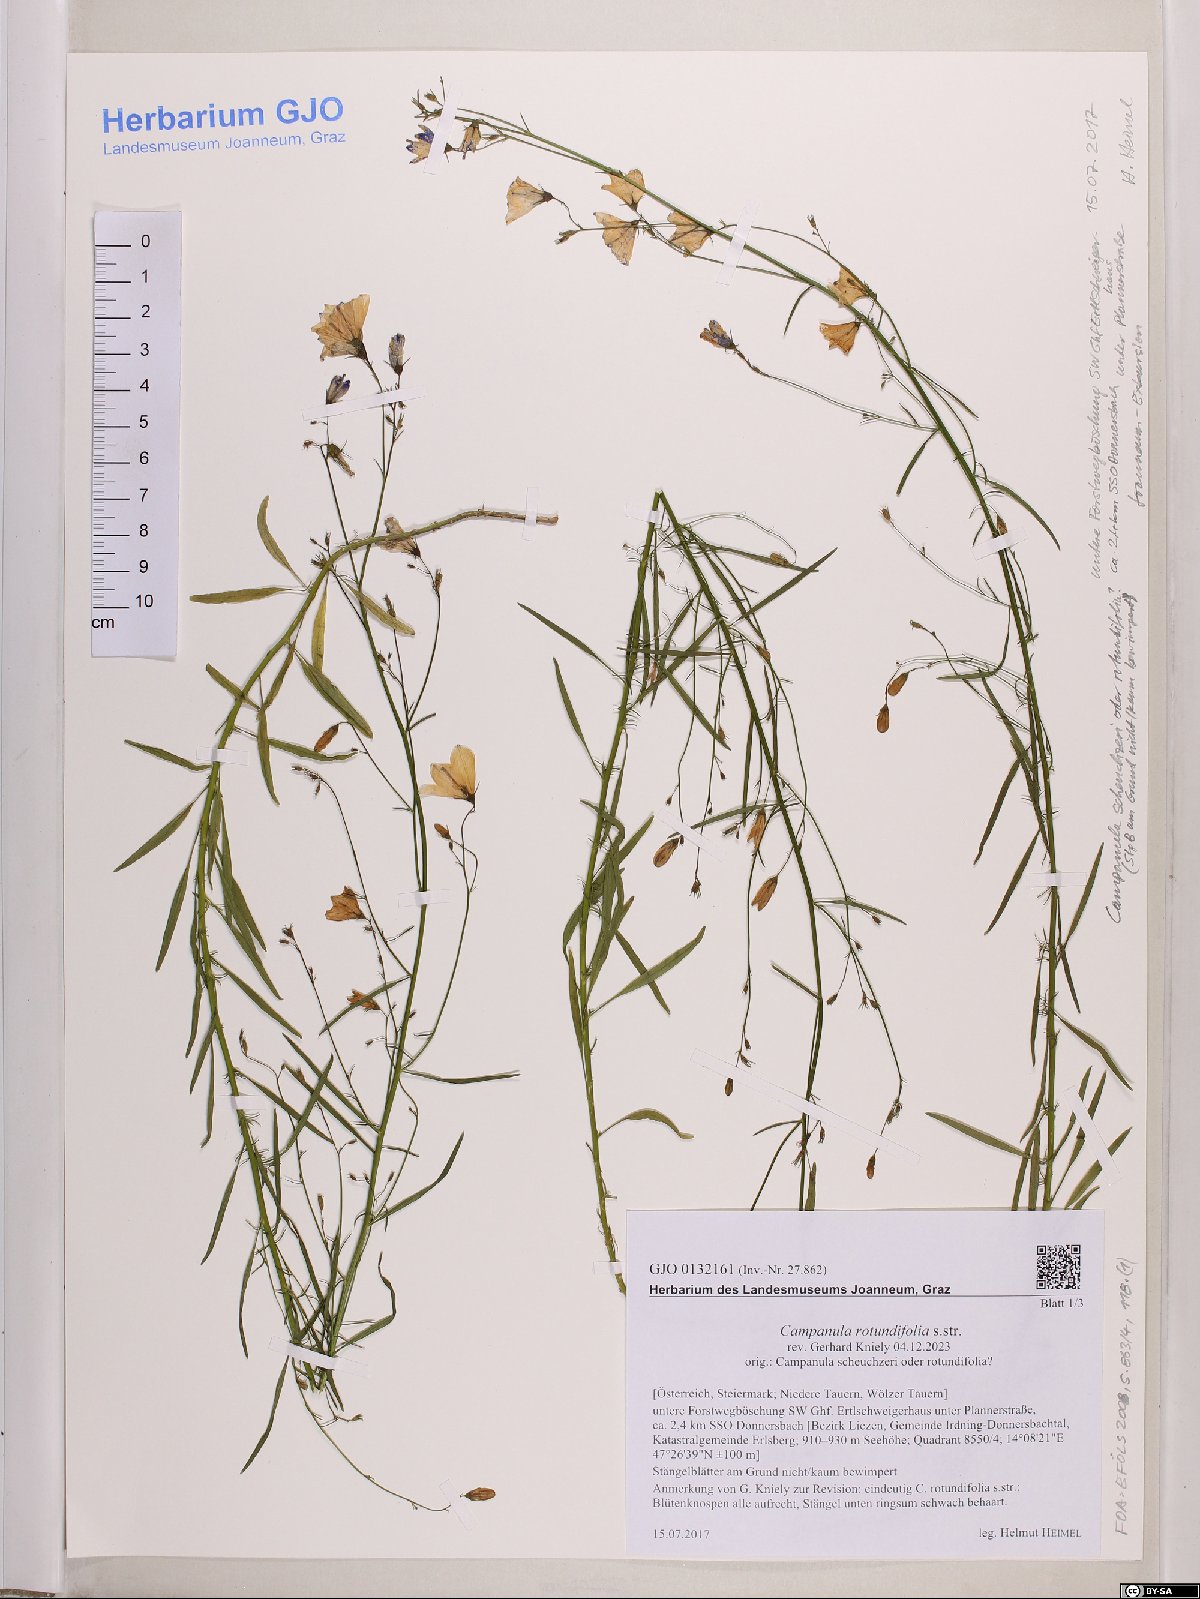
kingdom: Plantae
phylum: Tracheophyta
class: Magnoliopsida
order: Asterales
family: Campanulaceae
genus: Campanula
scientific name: Campanula rotundifolia
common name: Harebell
